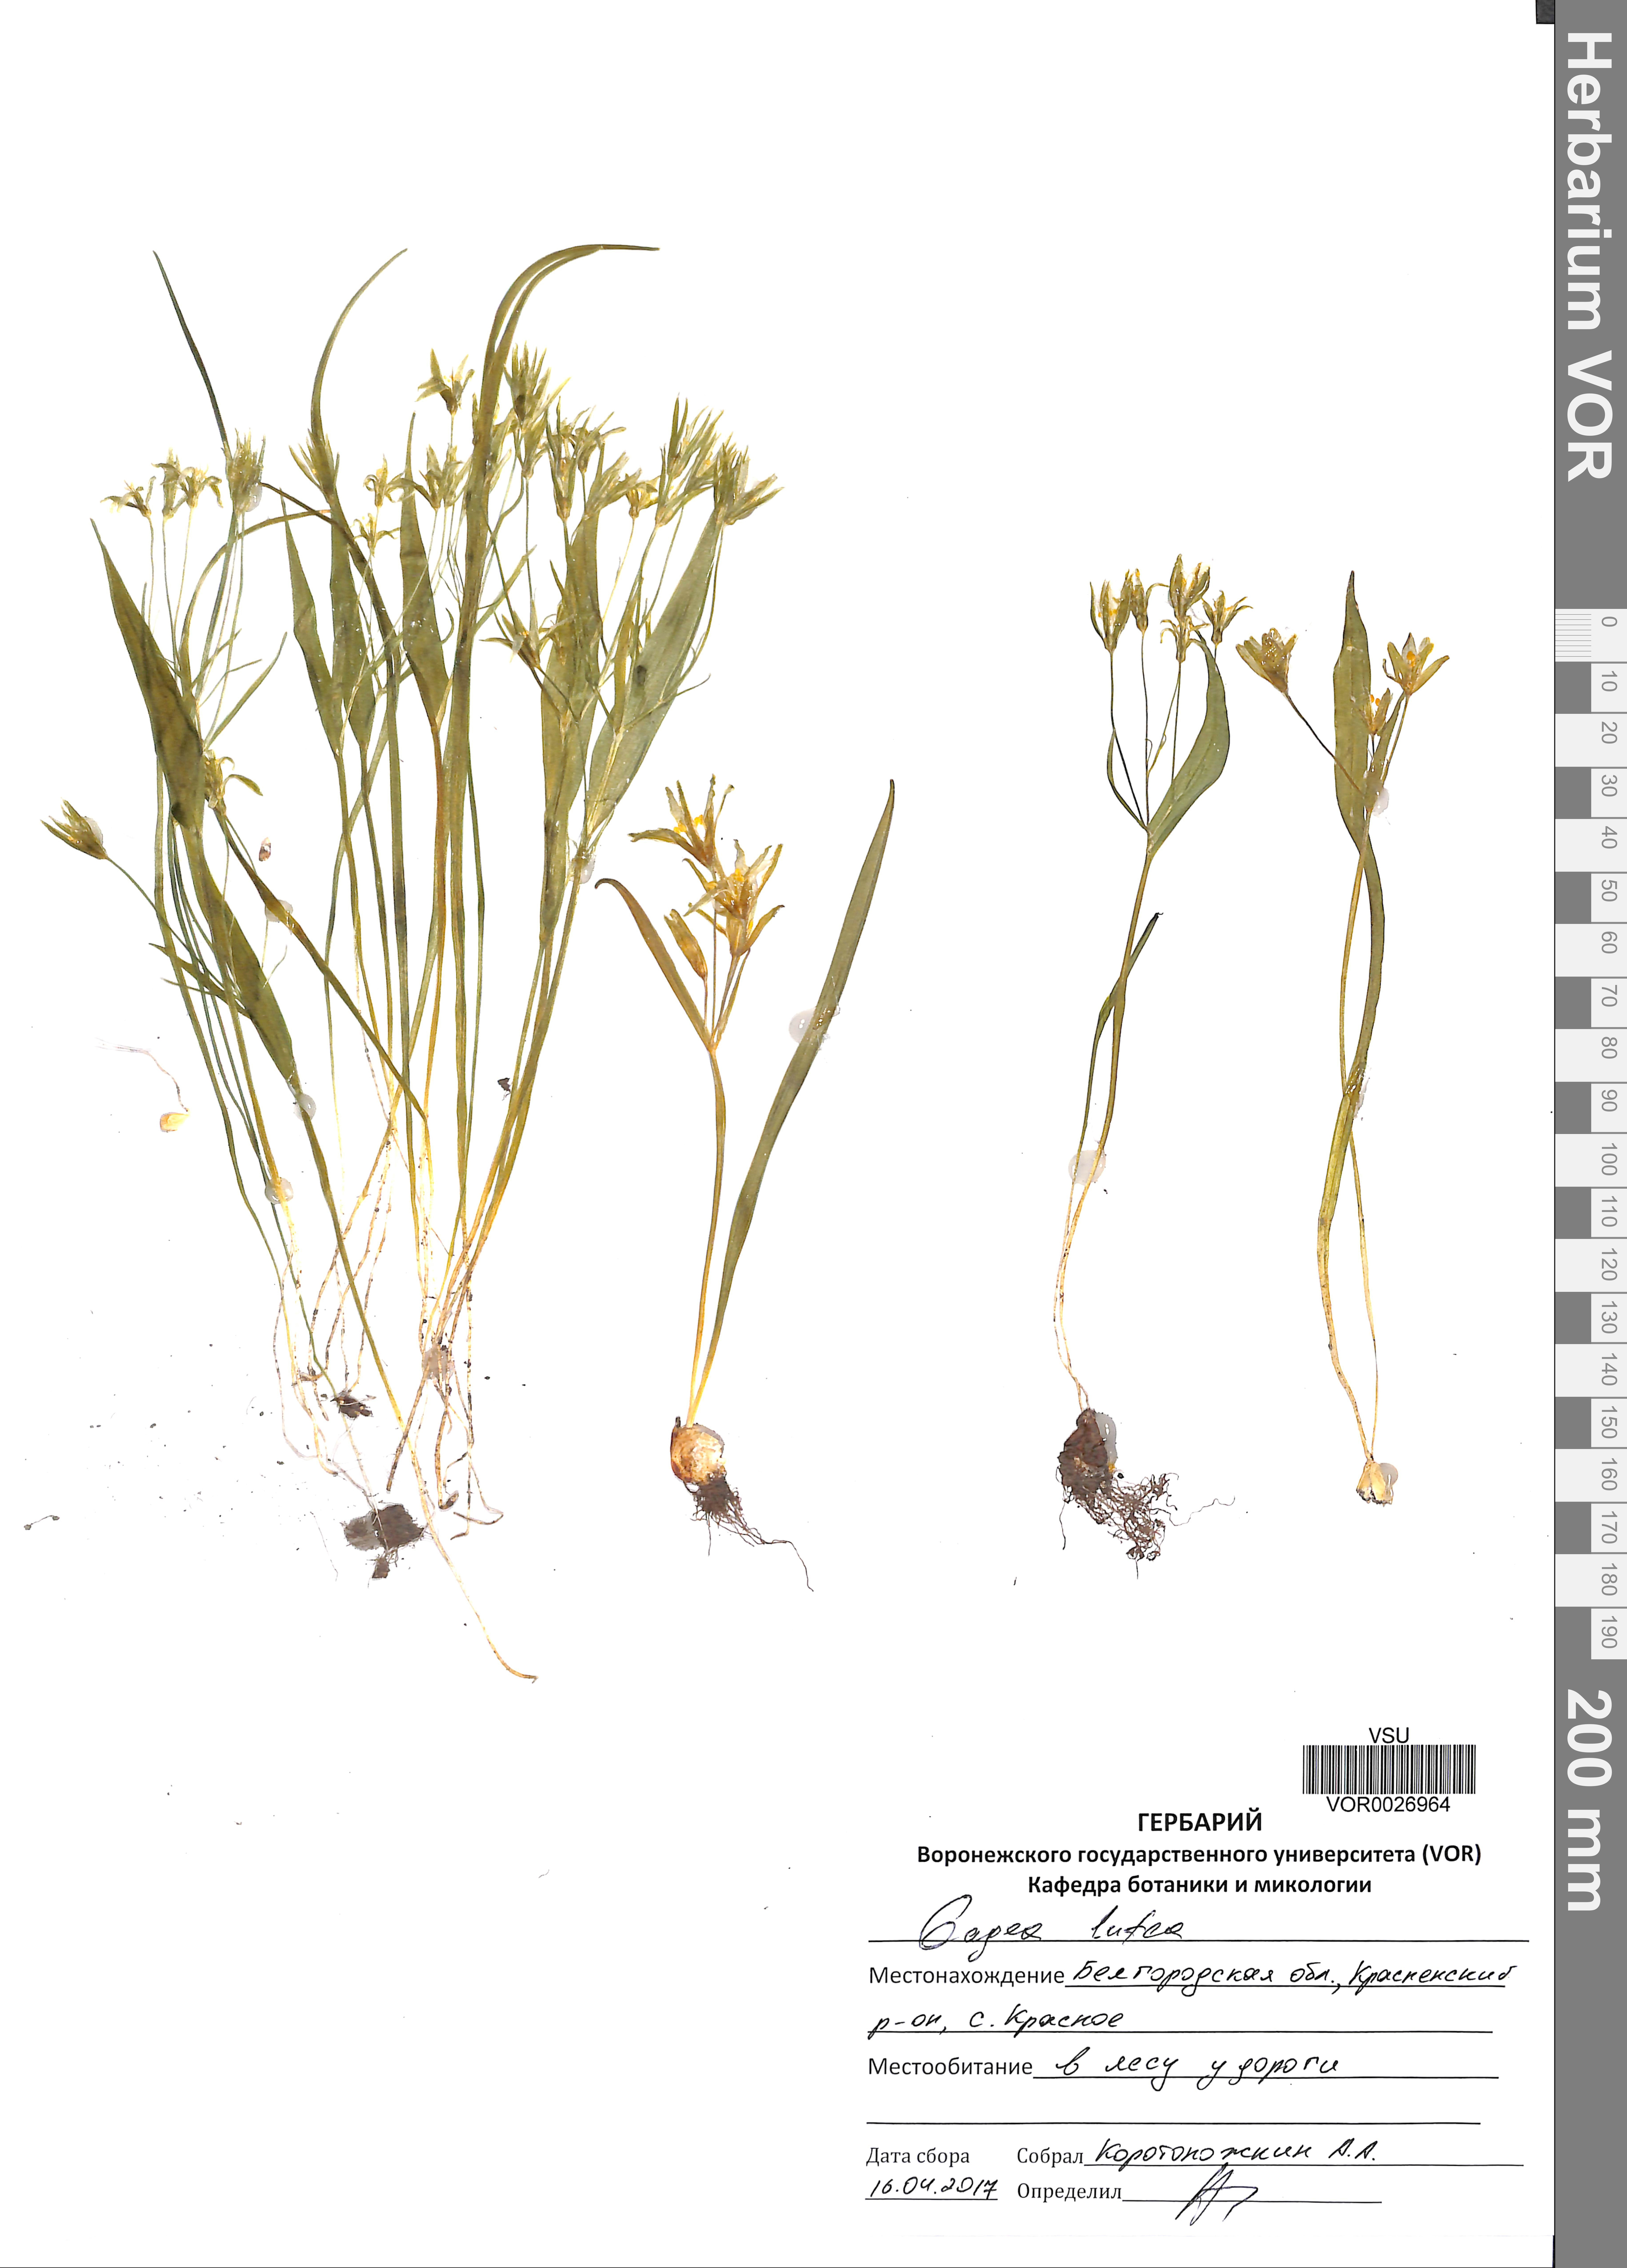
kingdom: Plantae
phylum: Tracheophyta
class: Liliopsida
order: Liliales
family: Liliaceae
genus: Gagea
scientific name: Gagea lutea
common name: Yellow star-of-bethlehem
